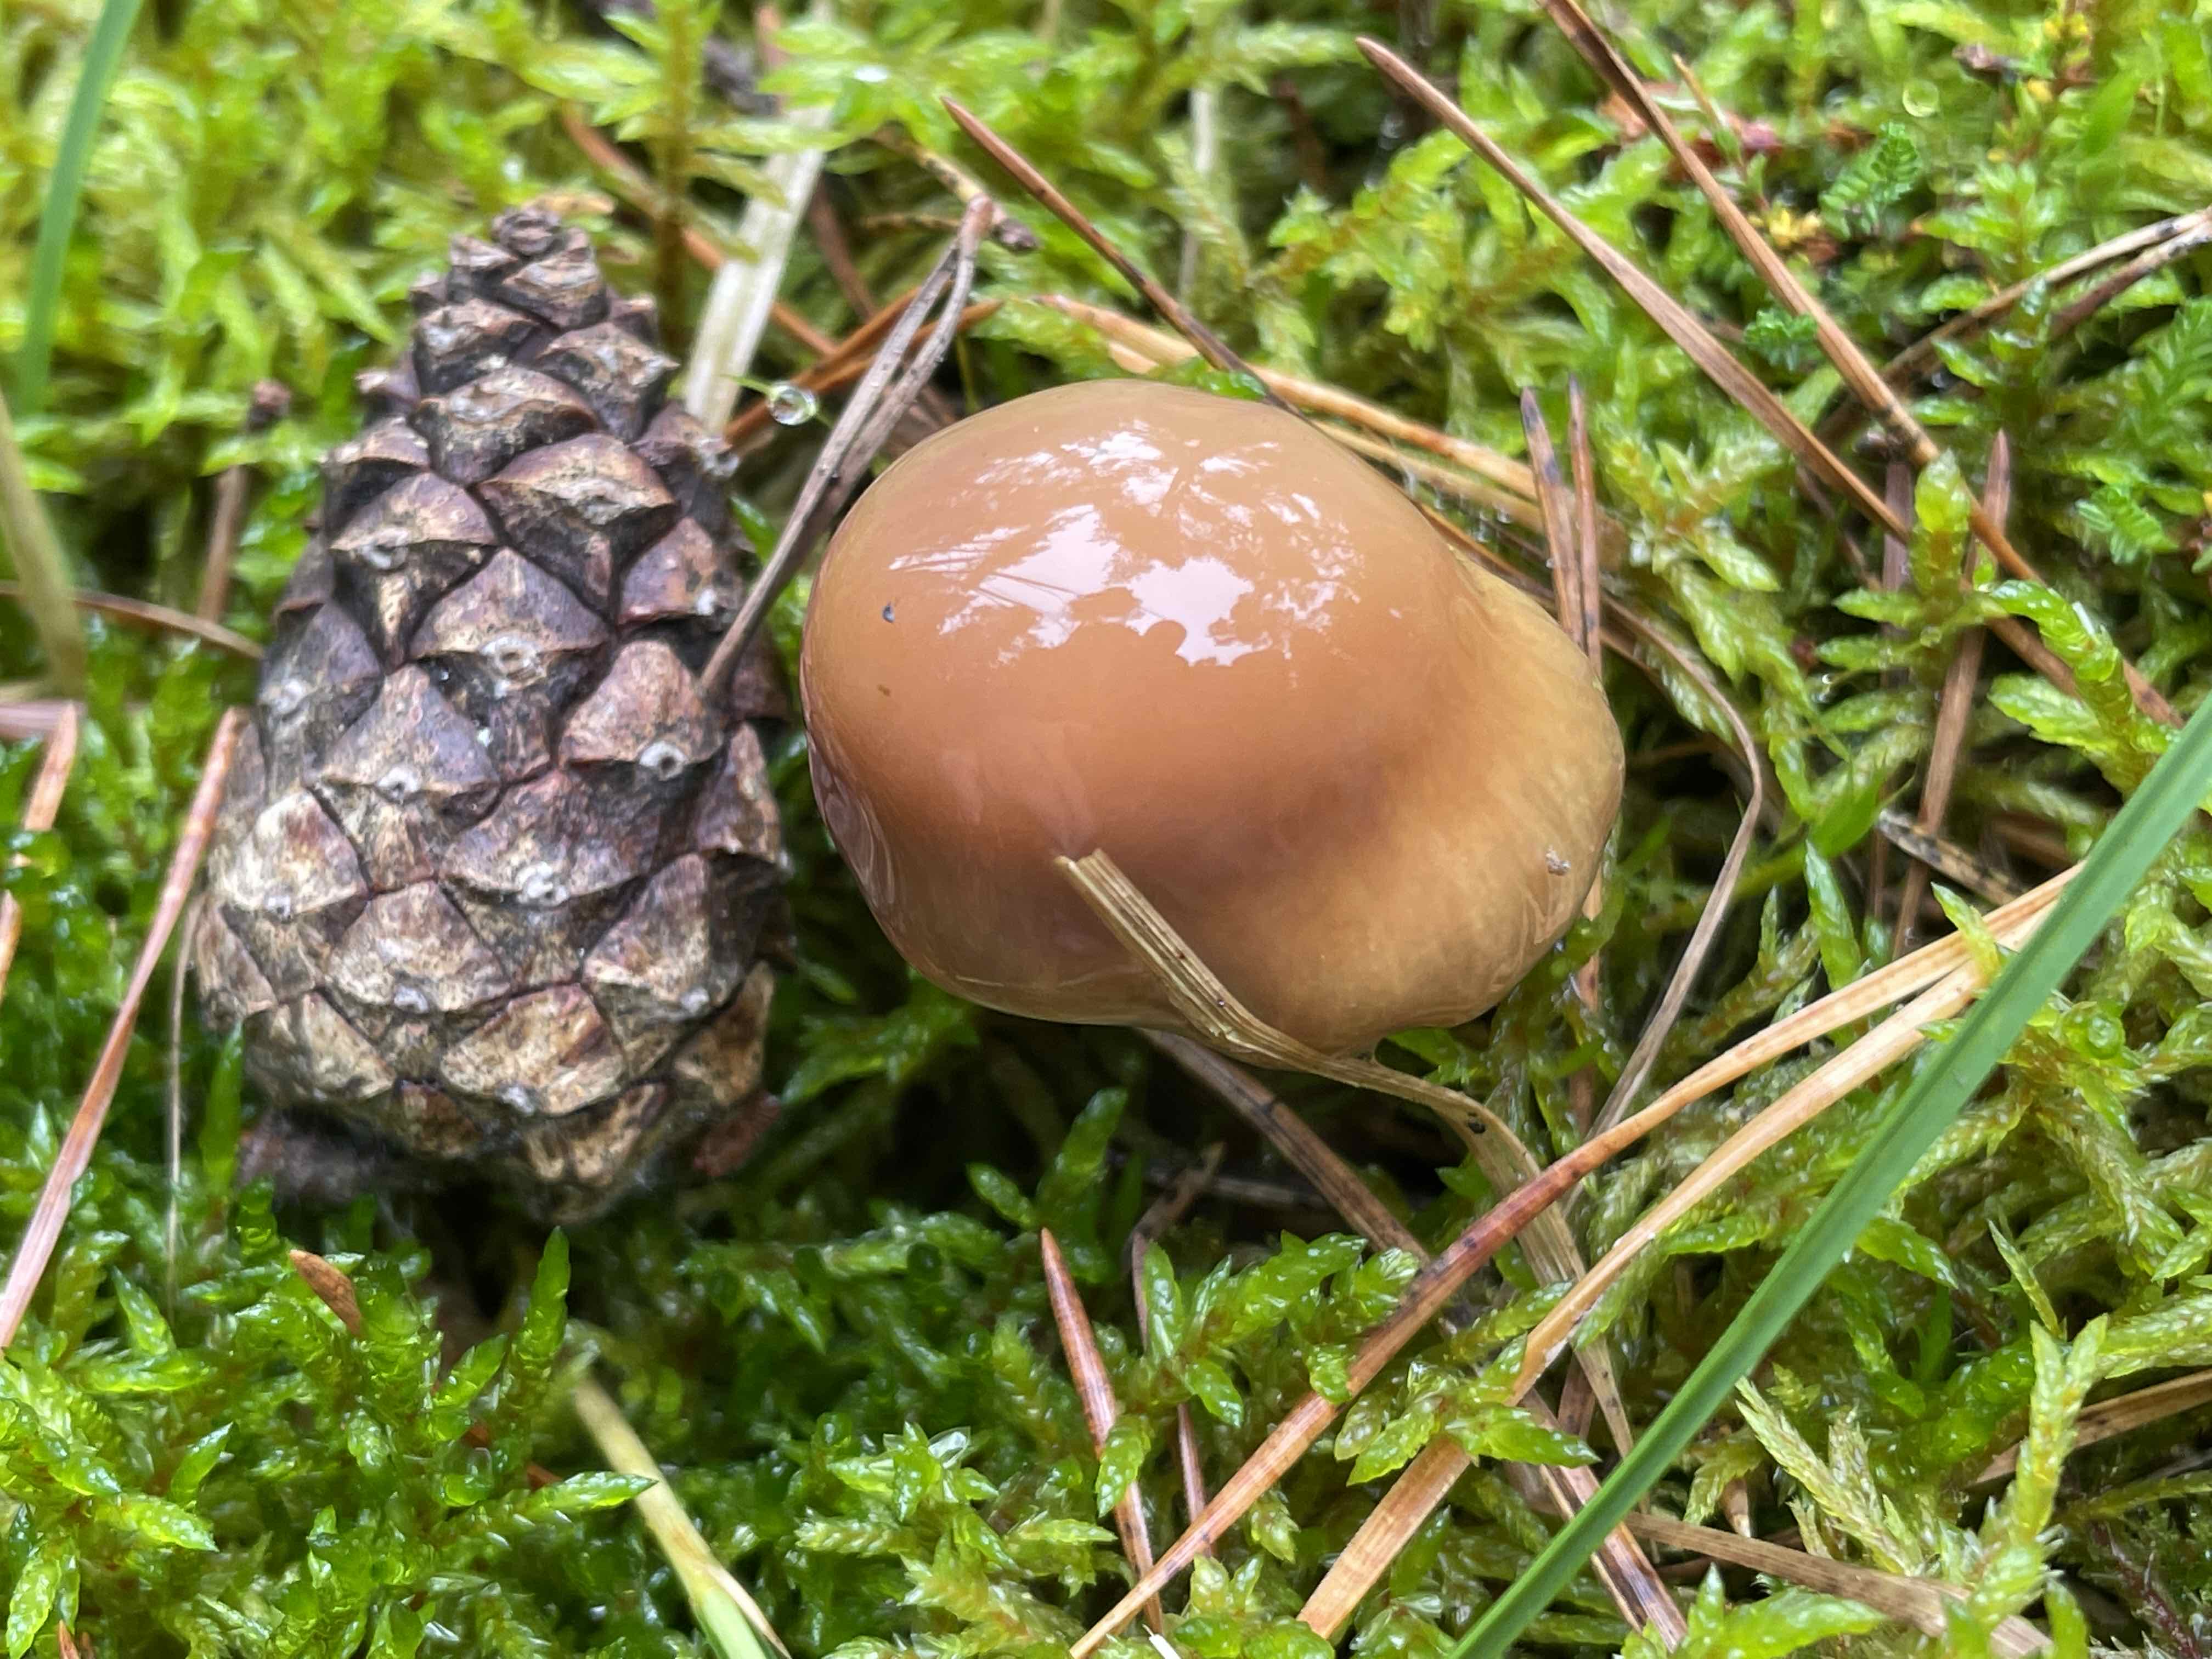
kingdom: Fungi
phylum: Basidiomycota
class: Agaricomycetes
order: Agaricales
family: Cortinariaceae
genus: Cortinarius
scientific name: Cortinarius stillatitius
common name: honningduftende slørhat
